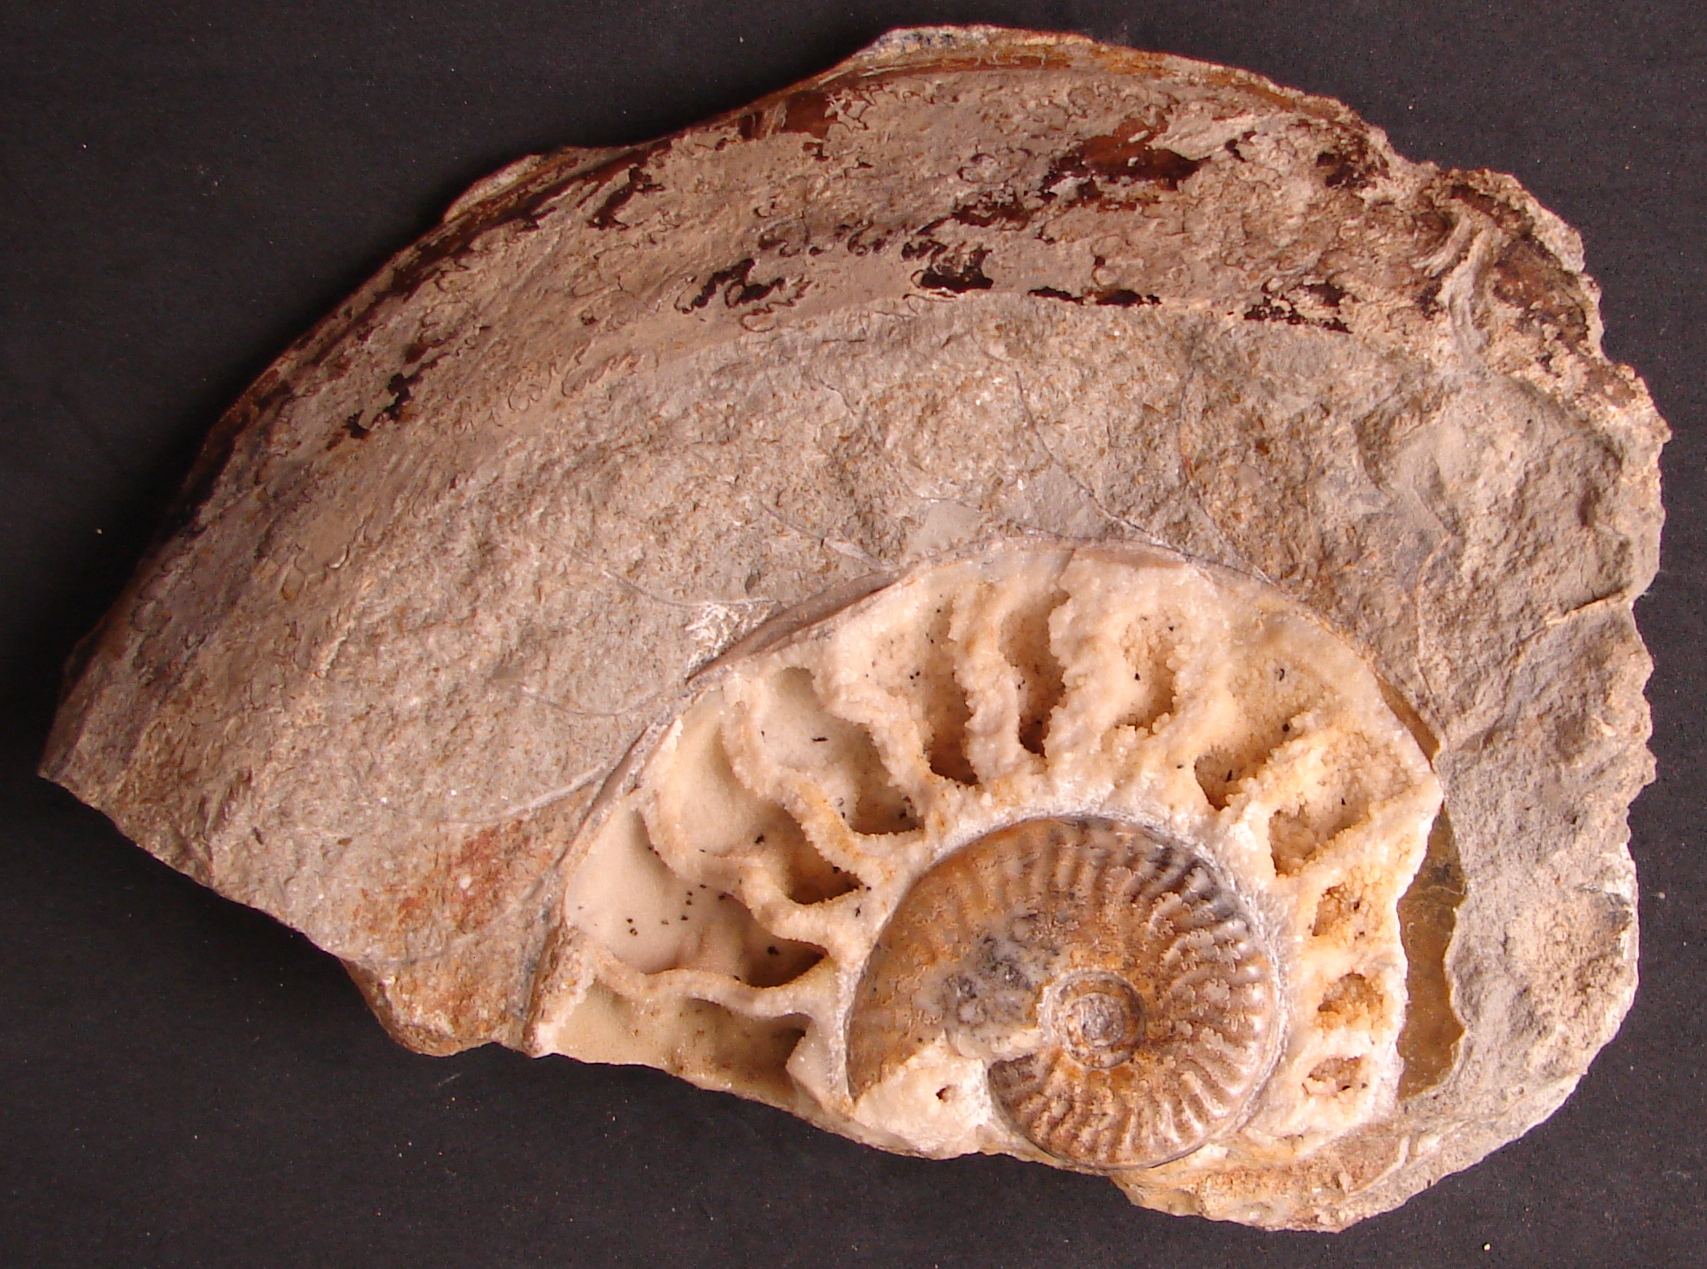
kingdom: Animalia
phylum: Mollusca
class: Cephalopoda
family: Graphoceratidae
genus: Hyperlioceras
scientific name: Hyperlioceras
